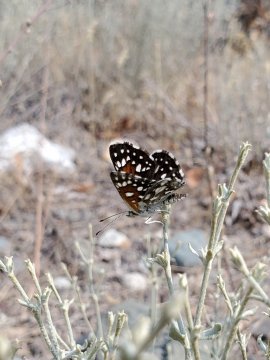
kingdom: Animalia
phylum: Arthropoda
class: Insecta
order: Lepidoptera
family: Riodinidae
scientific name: Riodinidae
